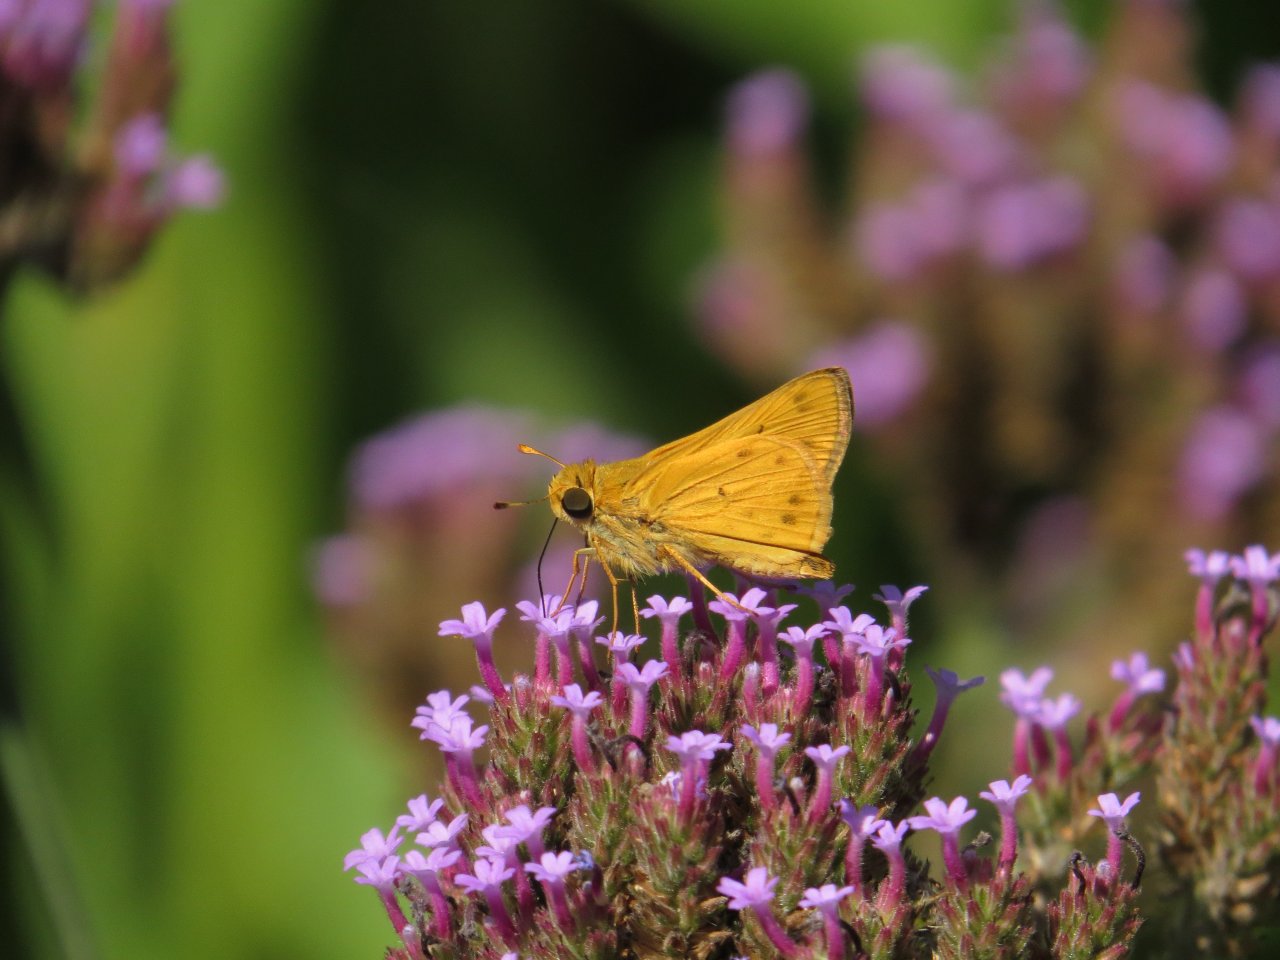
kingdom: Animalia
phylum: Arthropoda
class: Insecta
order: Lepidoptera
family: Hesperiidae
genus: Hylephila
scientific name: Hylephila phyleus
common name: Fiery Skipper
